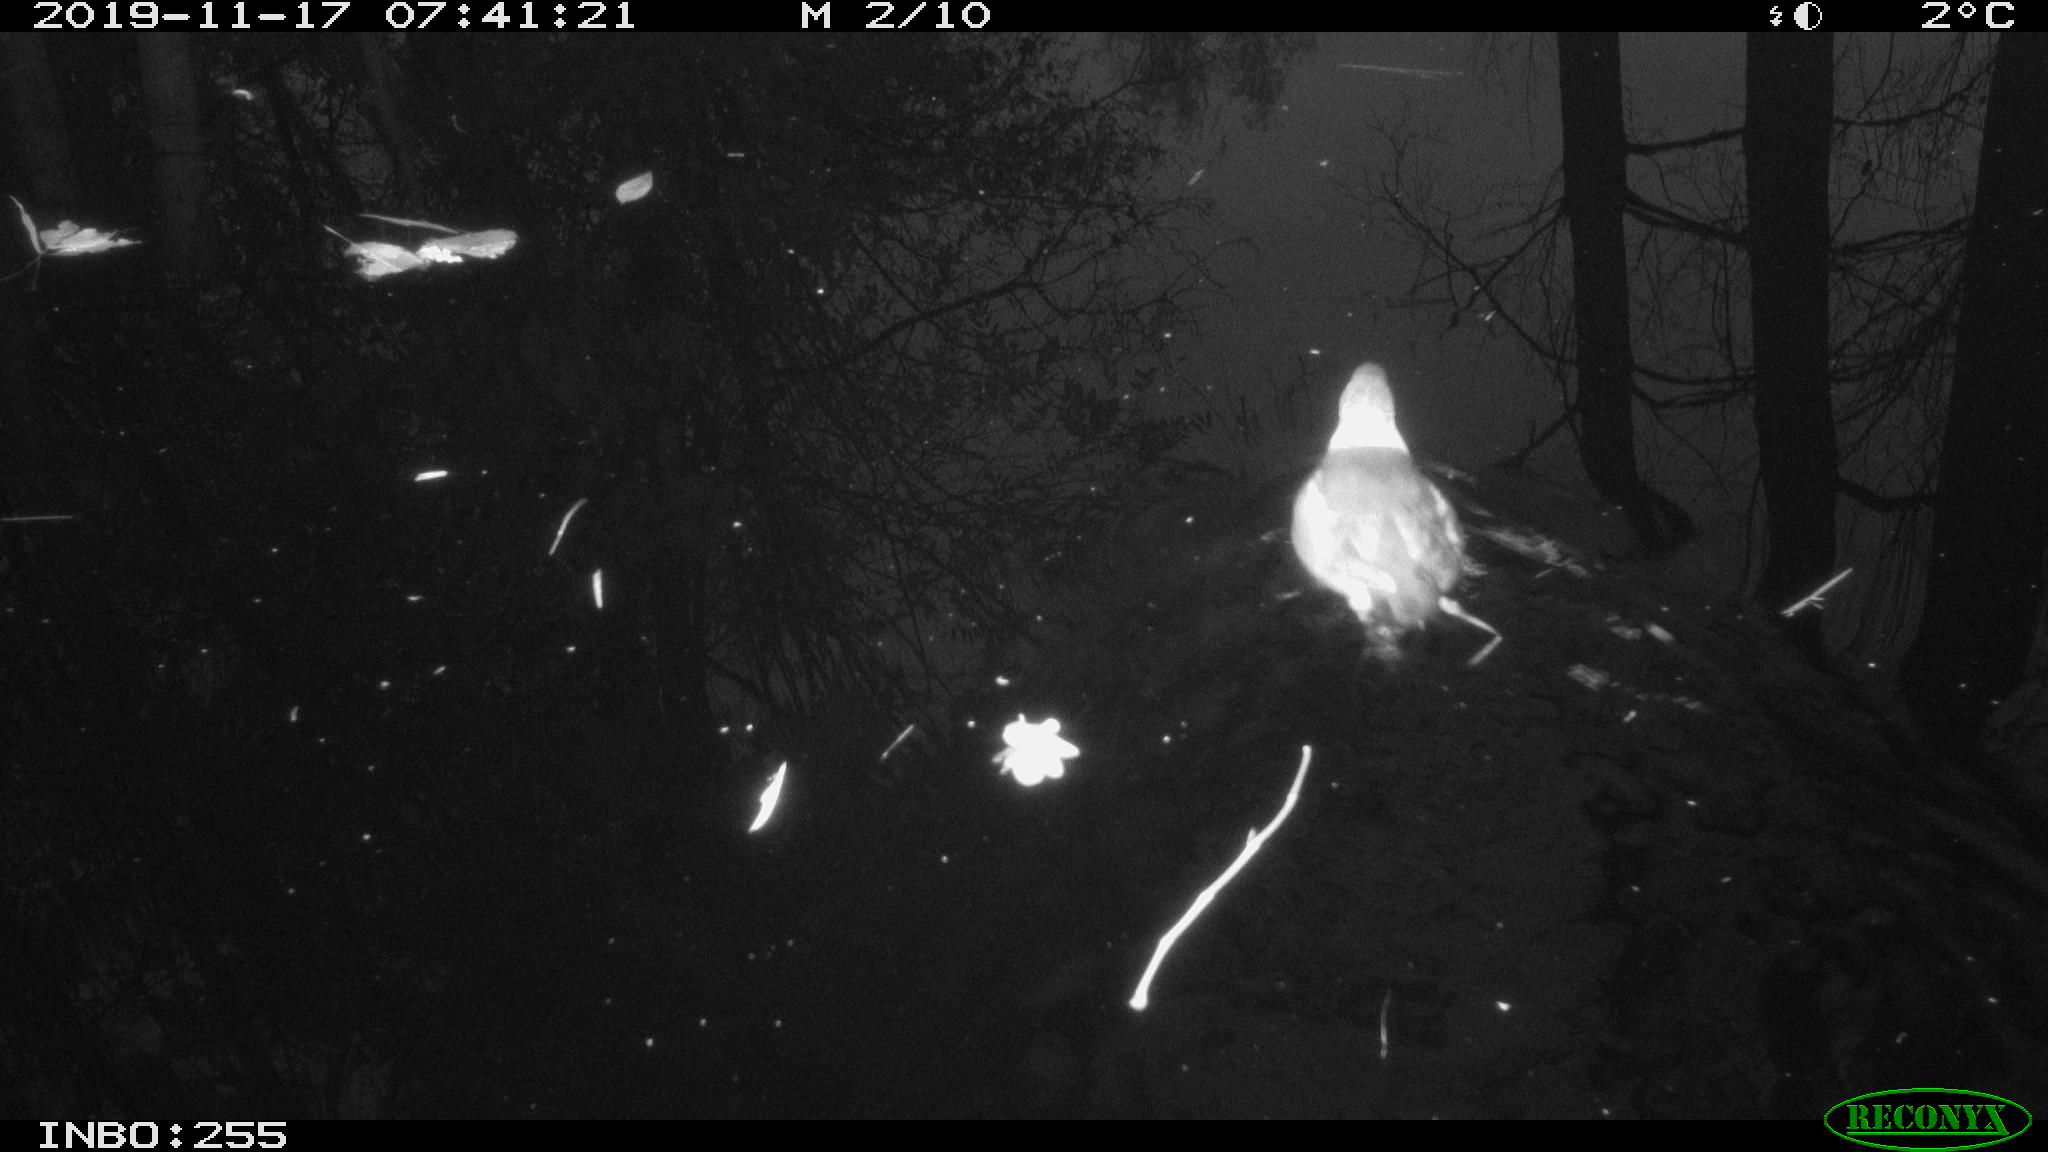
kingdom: Animalia
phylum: Chordata
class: Aves
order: Gruiformes
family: Rallidae
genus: Gallinula
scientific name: Gallinula chloropus
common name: Common moorhen
